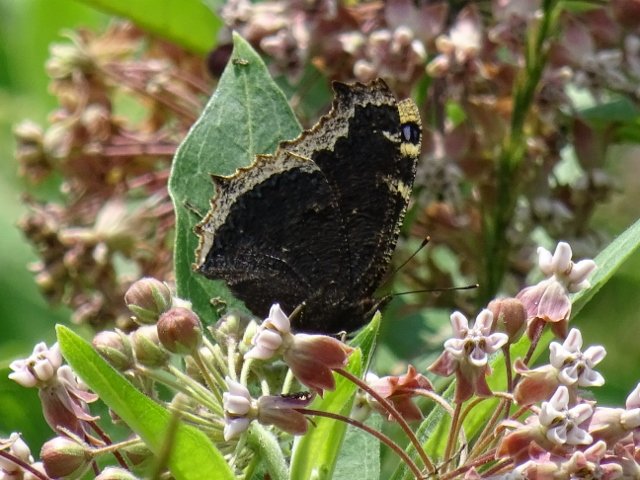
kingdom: Animalia
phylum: Arthropoda
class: Insecta
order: Lepidoptera
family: Nymphalidae
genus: Nymphalis
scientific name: Nymphalis antiopa
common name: Mourning Cloak
